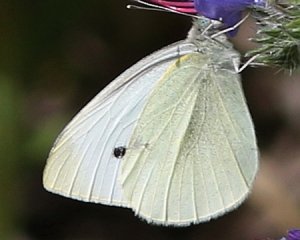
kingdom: Animalia
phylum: Arthropoda
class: Insecta
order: Lepidoptera
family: Pieridae
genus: Pieris
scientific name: Pieris rapae
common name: Cabbage White
